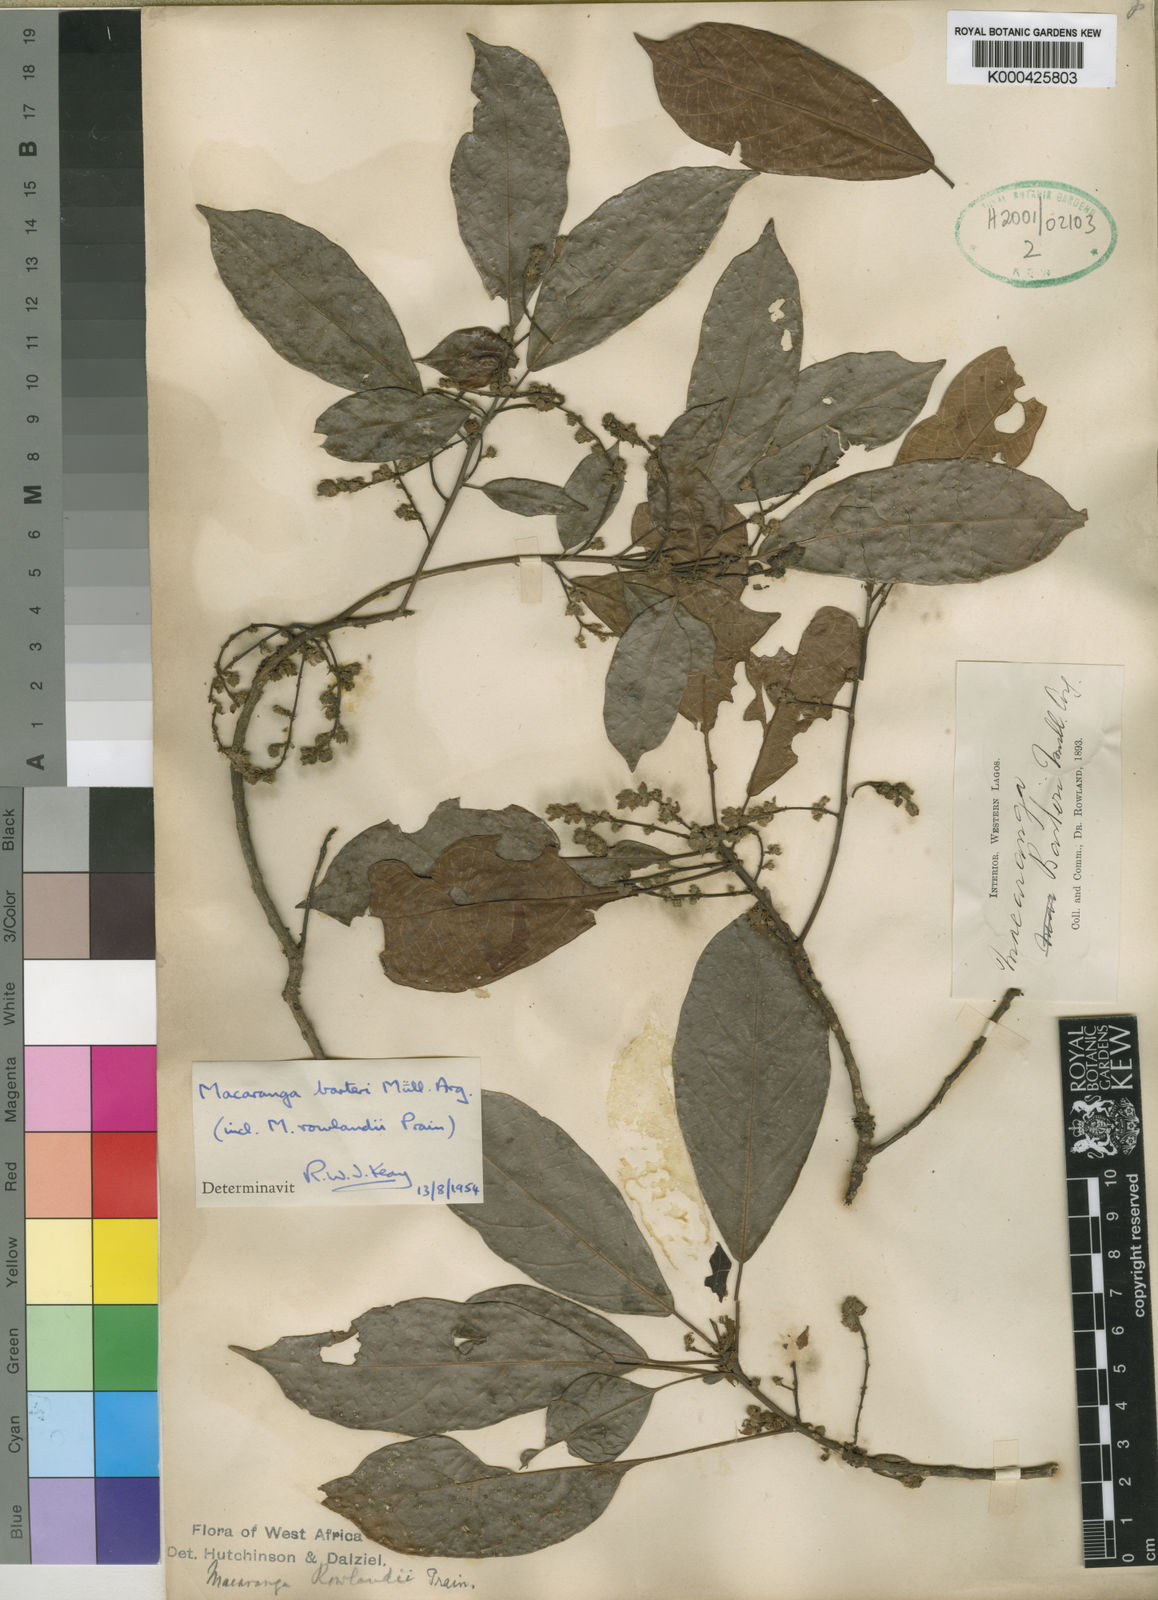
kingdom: Plantae
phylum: Tracheophyta
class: Magnoliopsida
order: Malpighiales
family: Euphorbiaceae
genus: Macaranga
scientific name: Macaranga
